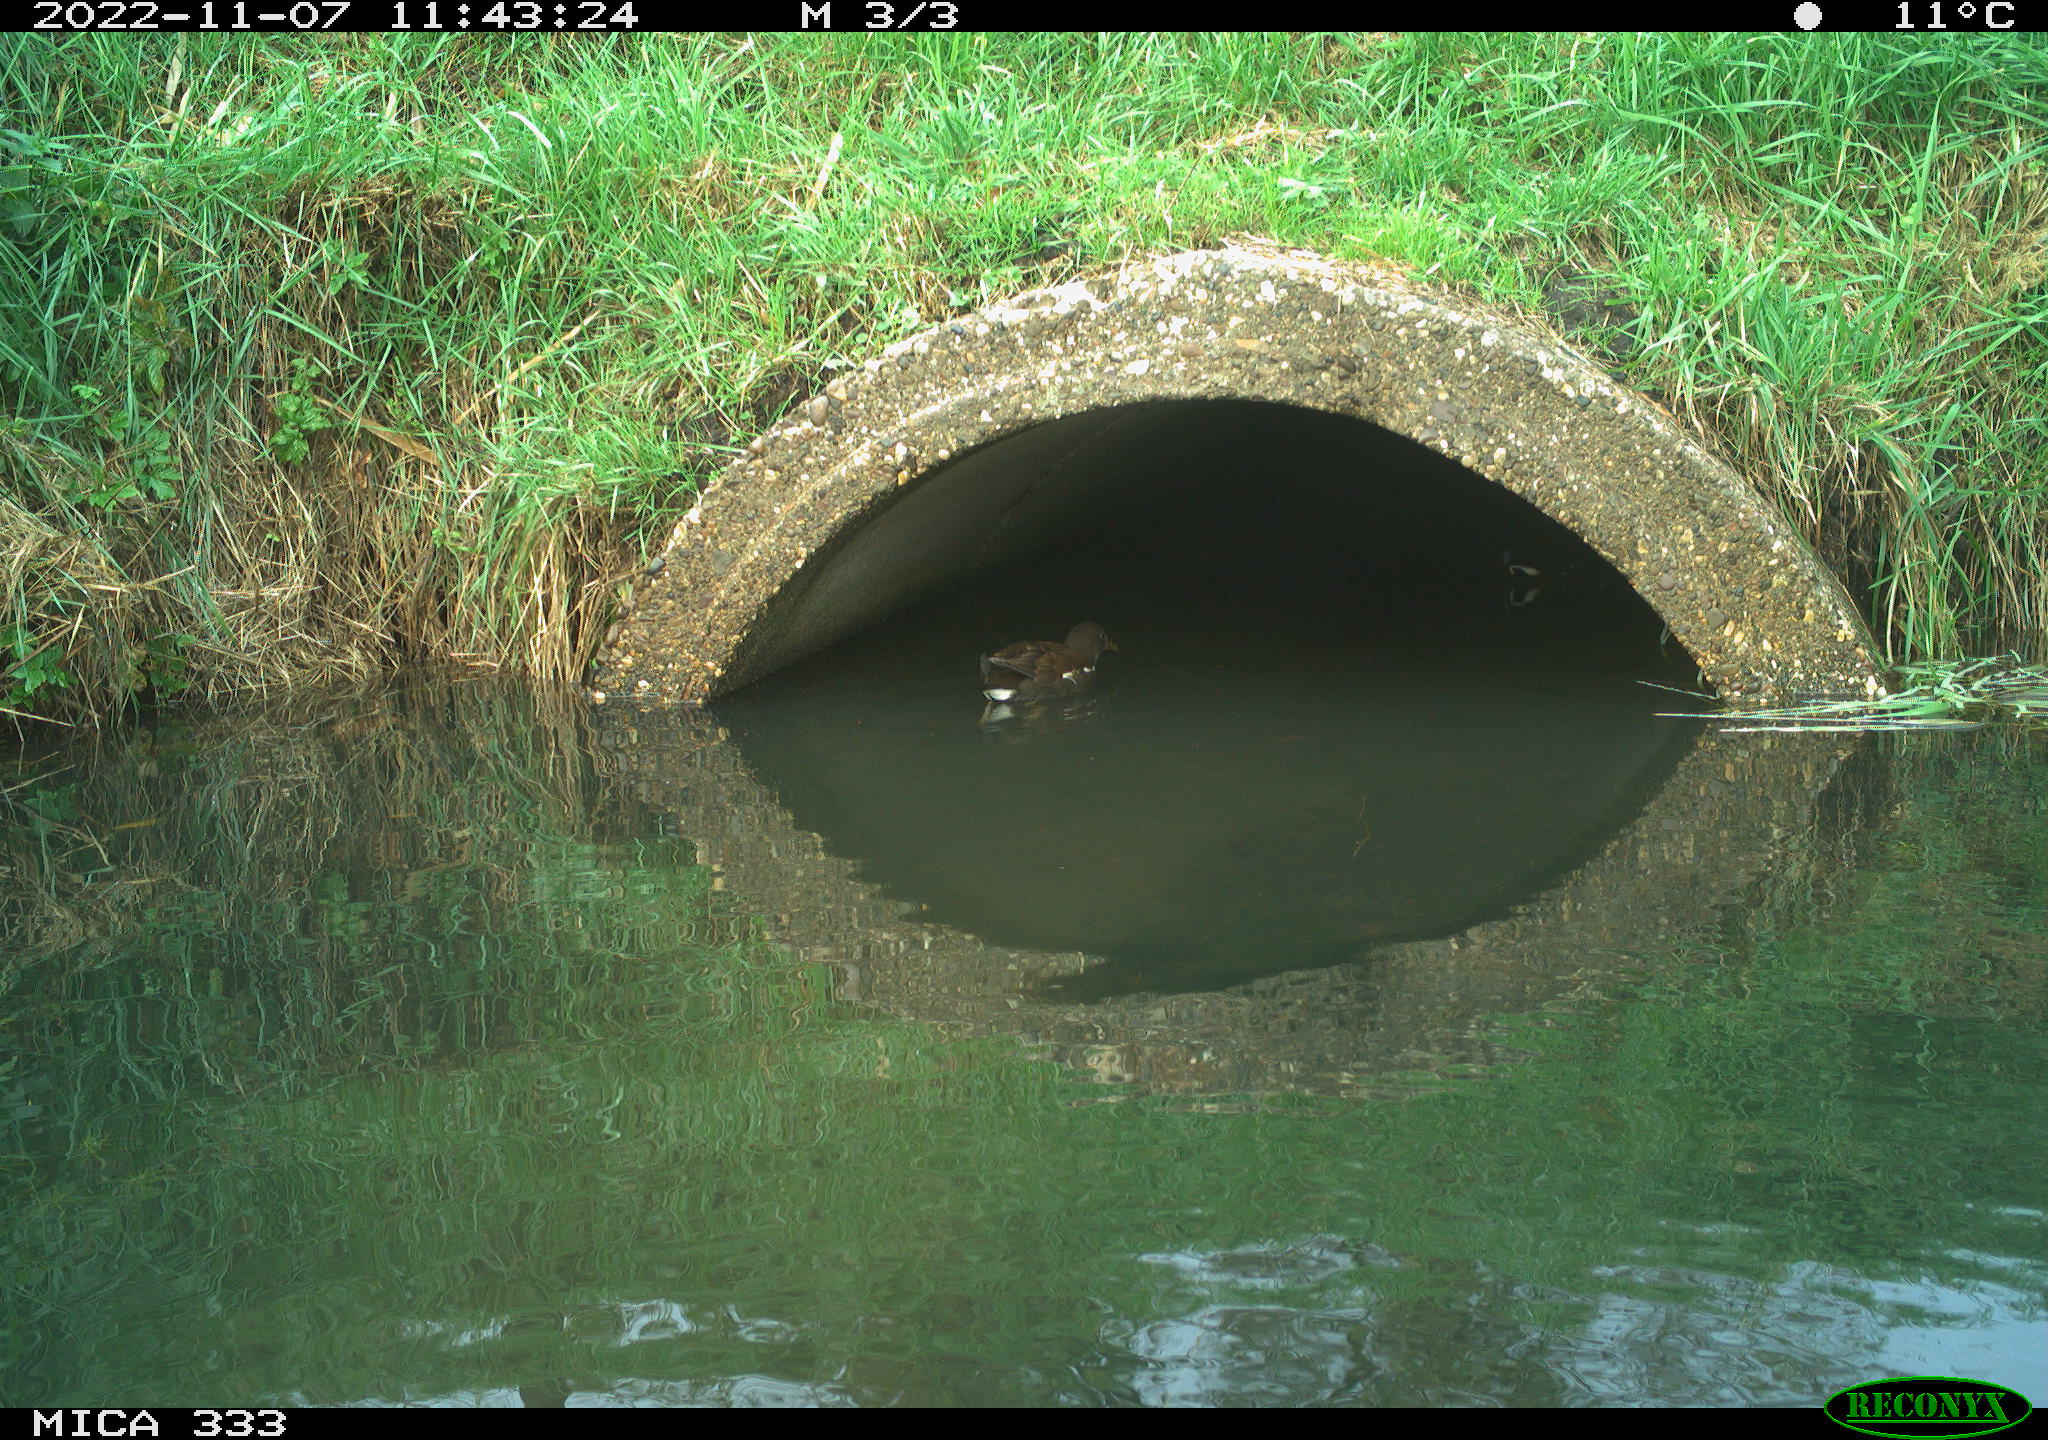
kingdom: Animalia
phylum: Chordata
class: Aves
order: Gruiformes
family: Rallidae
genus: Gallinula
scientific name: Gallinula chloropus
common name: Common moorhen
